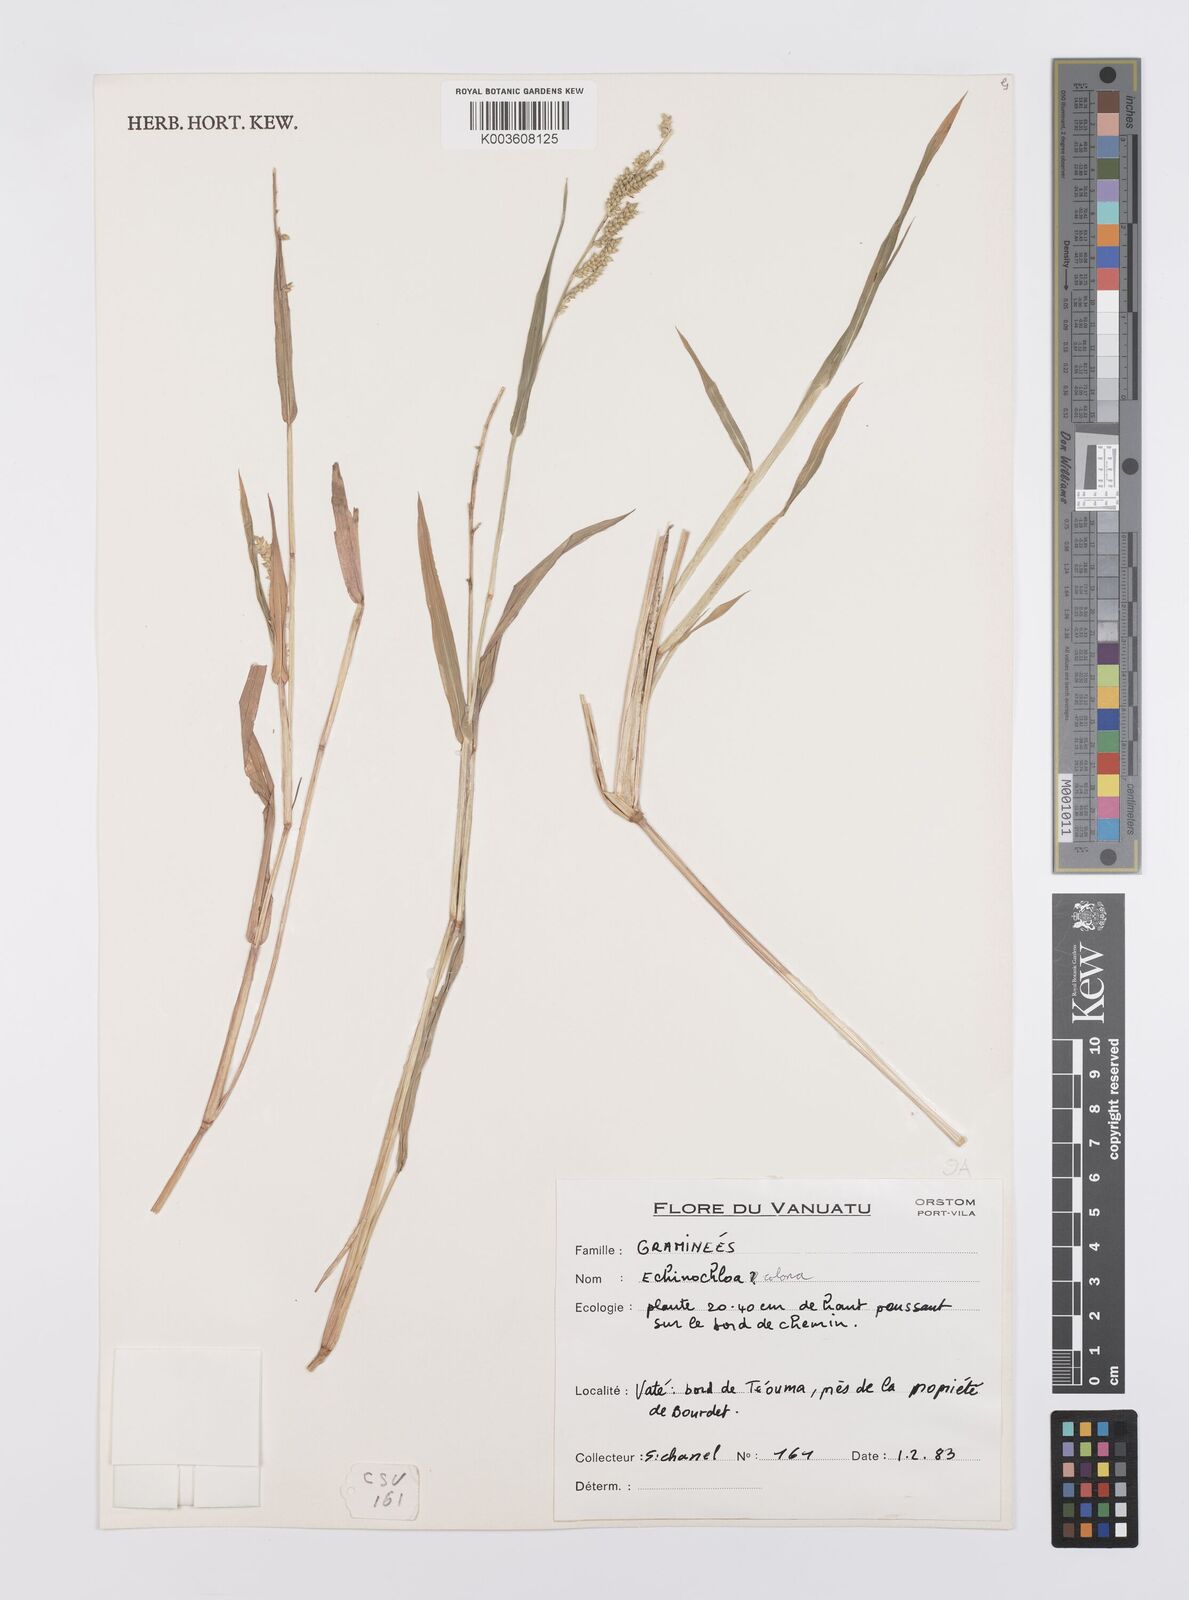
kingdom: Plantae
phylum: Tracheophyta
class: Liliopsida
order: Poales
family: Poaceae
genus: Echinochloa
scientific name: Echinochloa colonum
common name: Jungle rice
